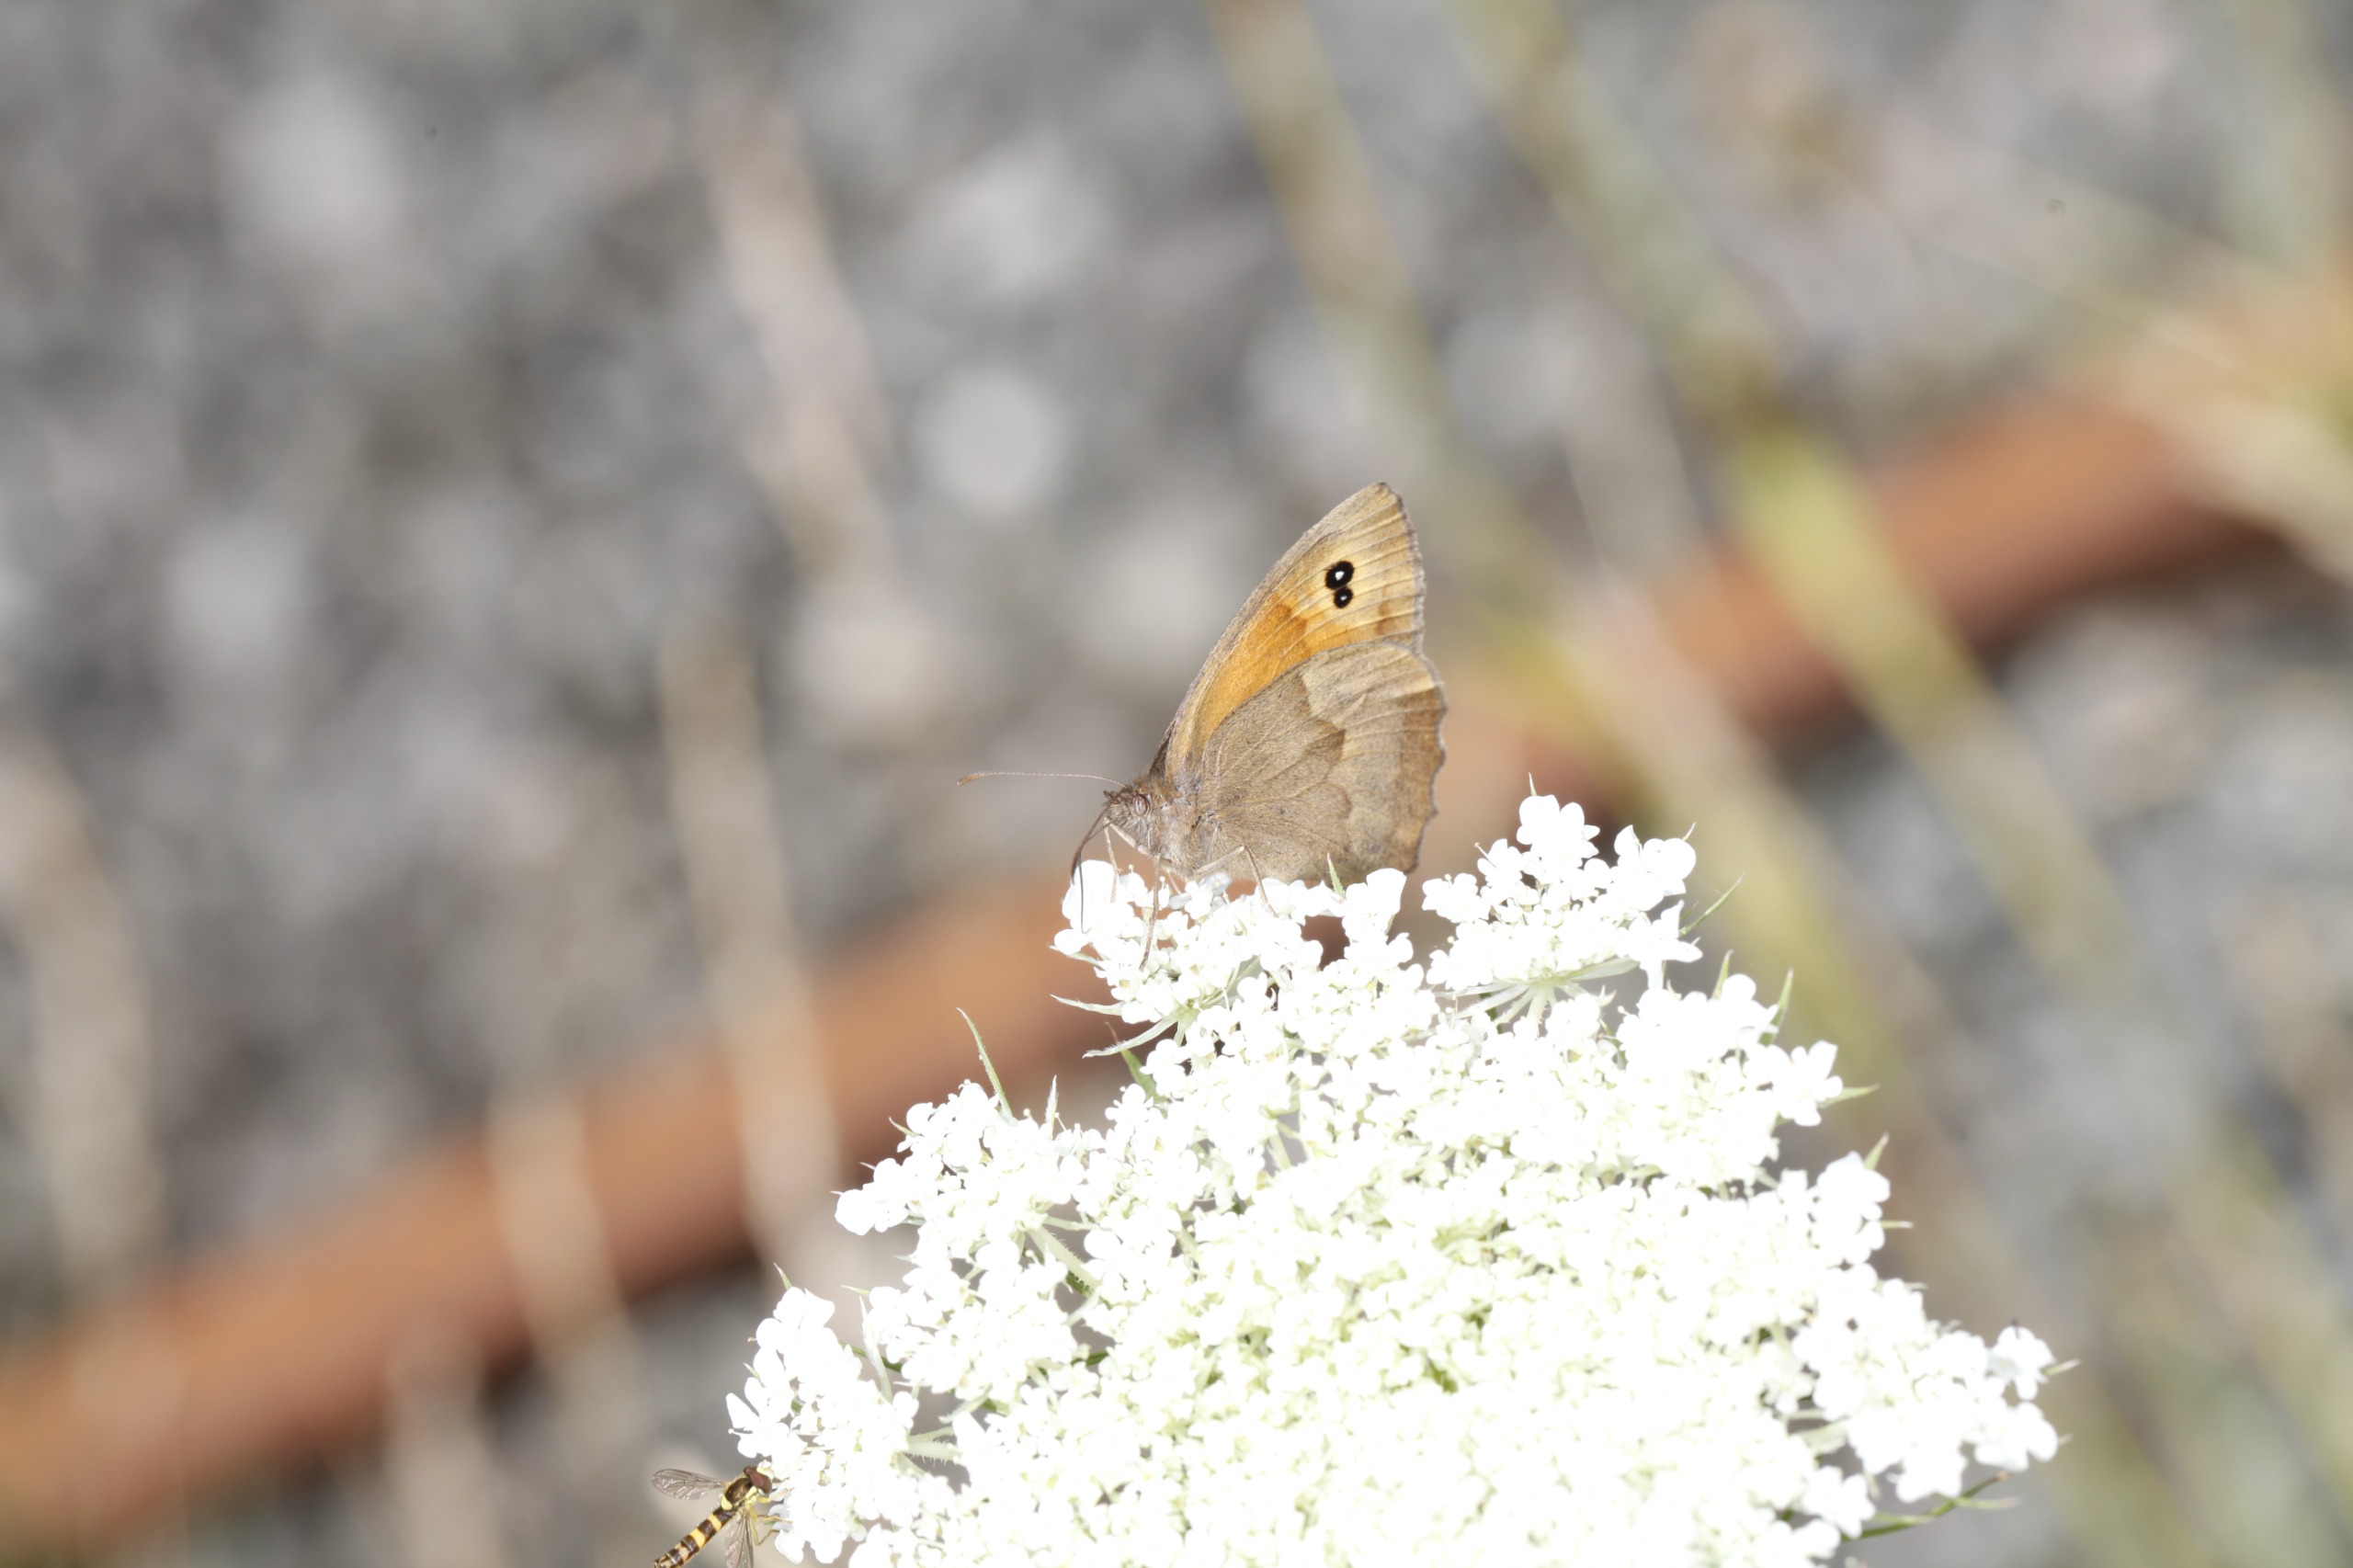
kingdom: Animalia
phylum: Arthropoda
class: Insecta
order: Lepidoptera
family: Nymphalidae
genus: Maniola
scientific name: Maniola jurtina
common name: Græsrandøje
